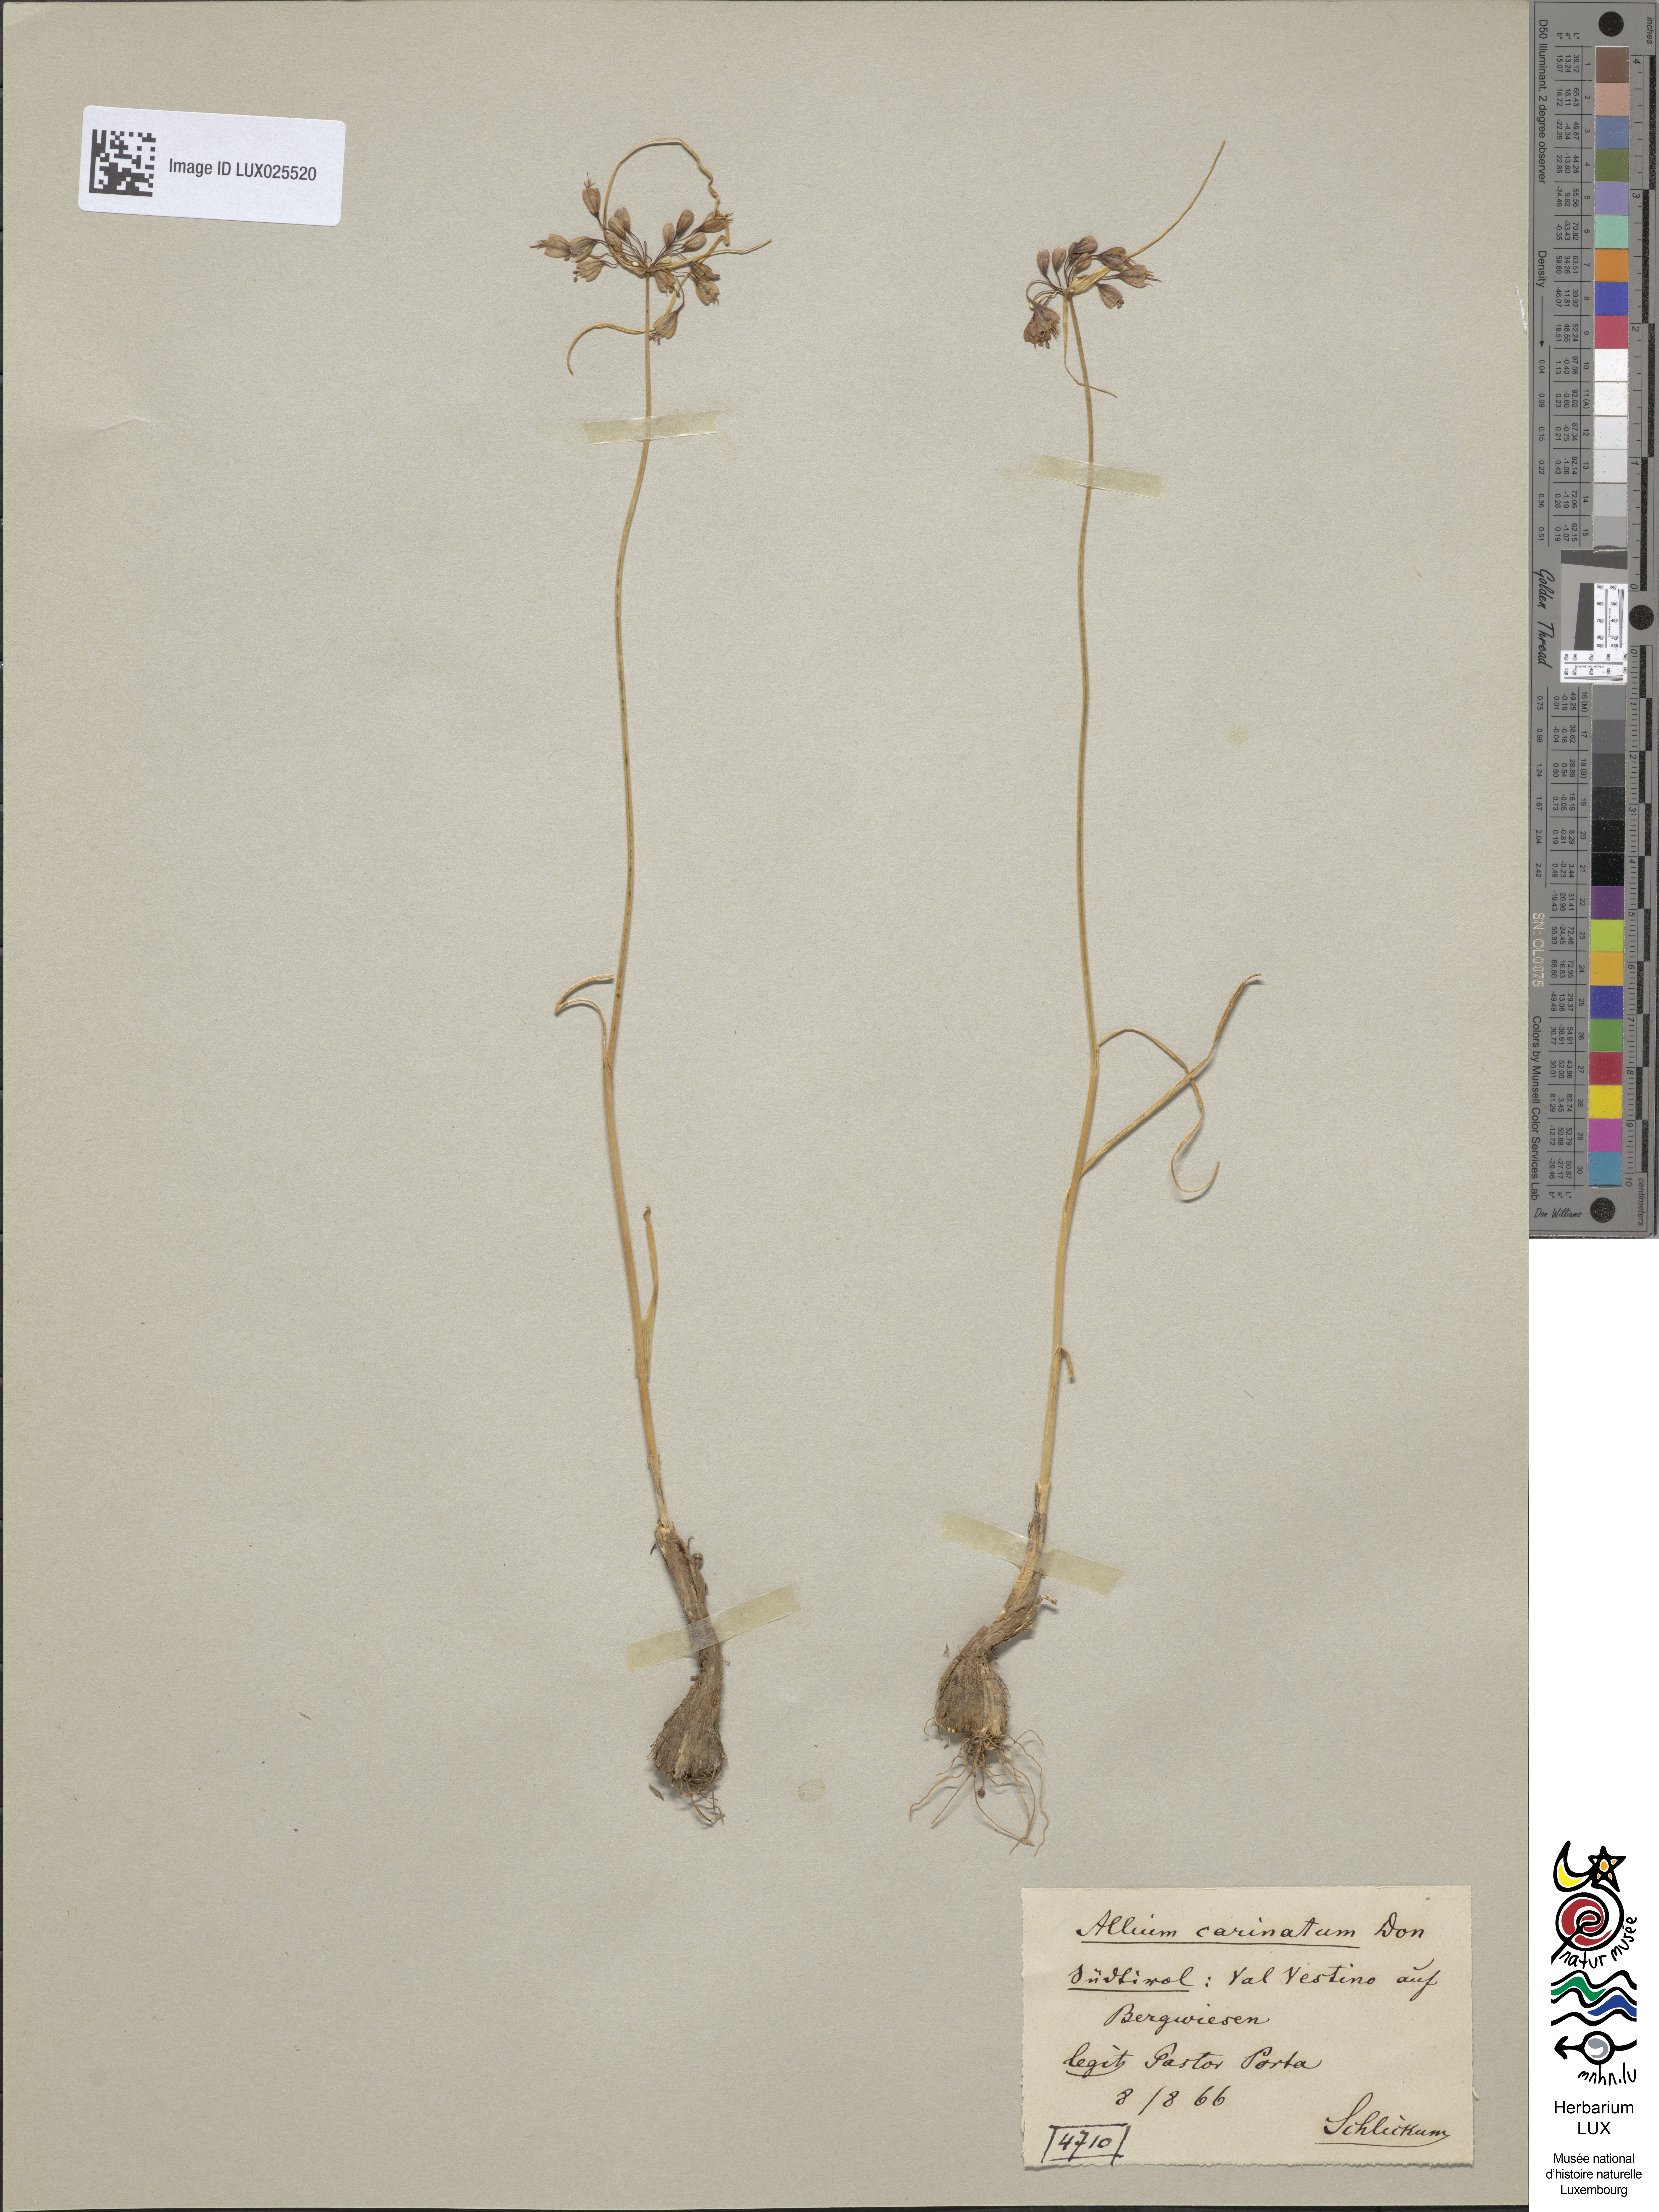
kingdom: Plantae
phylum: Tracheophyta
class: Liliopsida
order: Asparagales
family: Amaryllidaceae
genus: Allium
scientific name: Allium carinatum
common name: Keeled garlic
